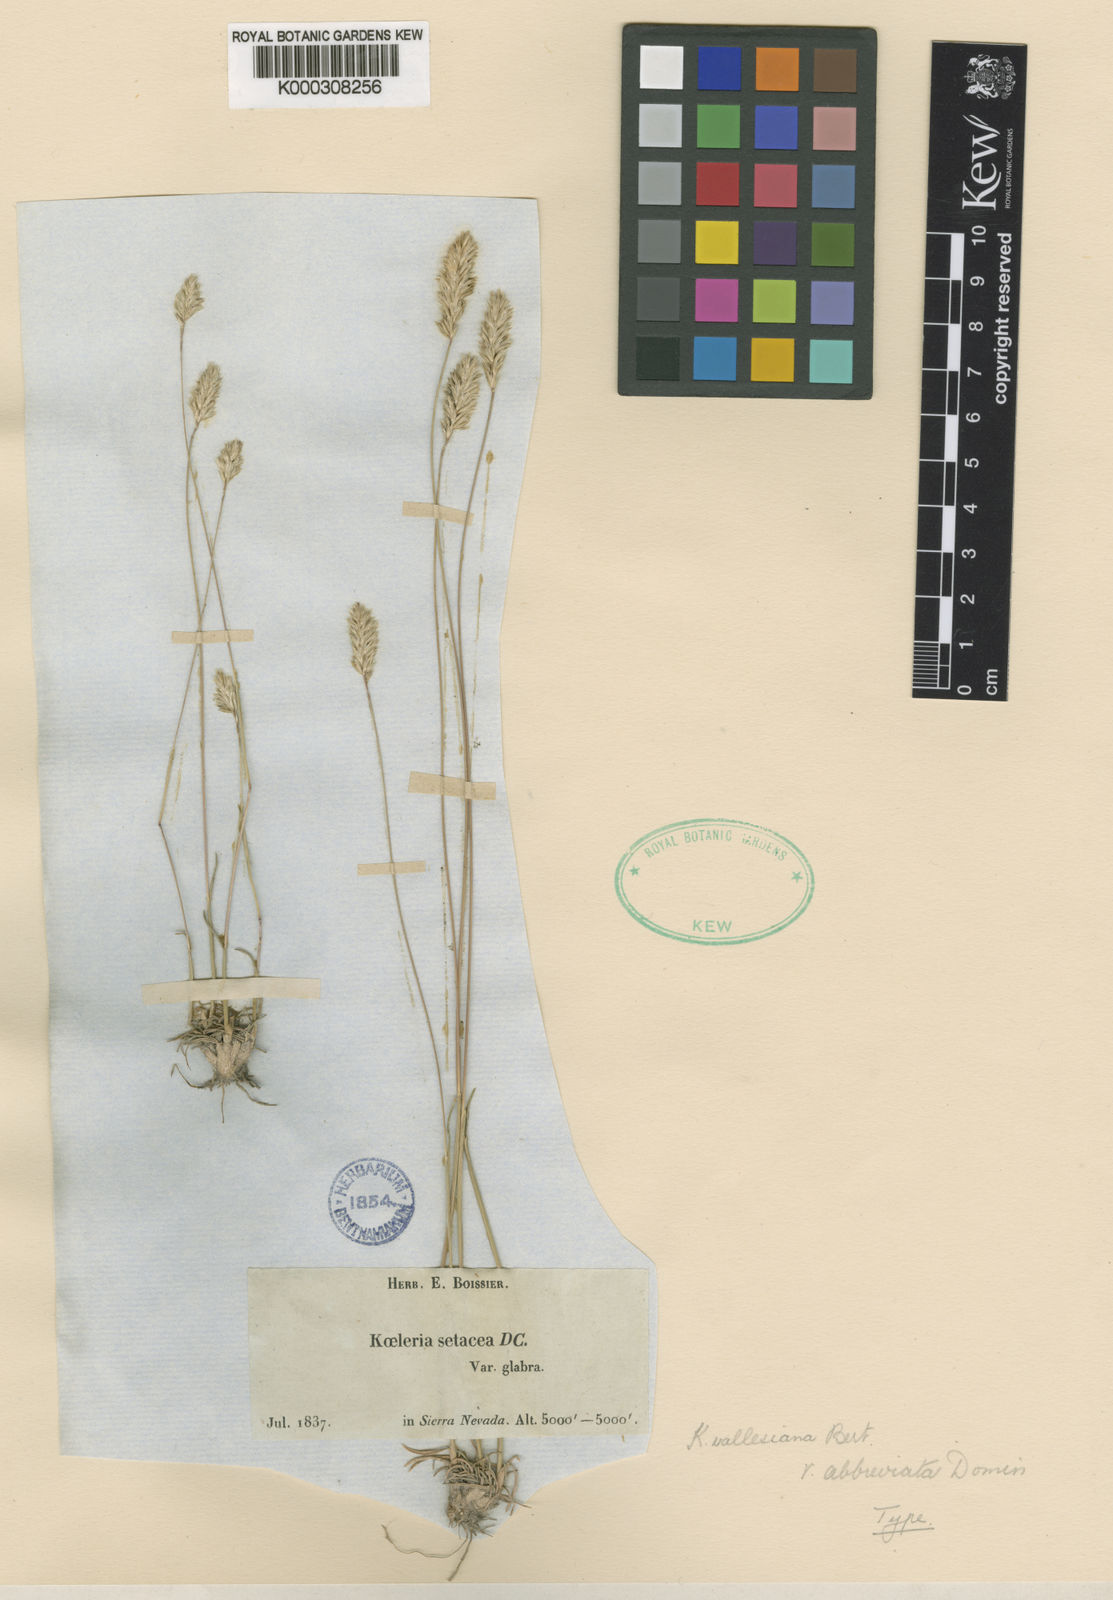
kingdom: Plantae
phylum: Tracheophyta
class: Liliopsida
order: Poales
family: Poaceae
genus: Koeleria
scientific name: Koeleria
